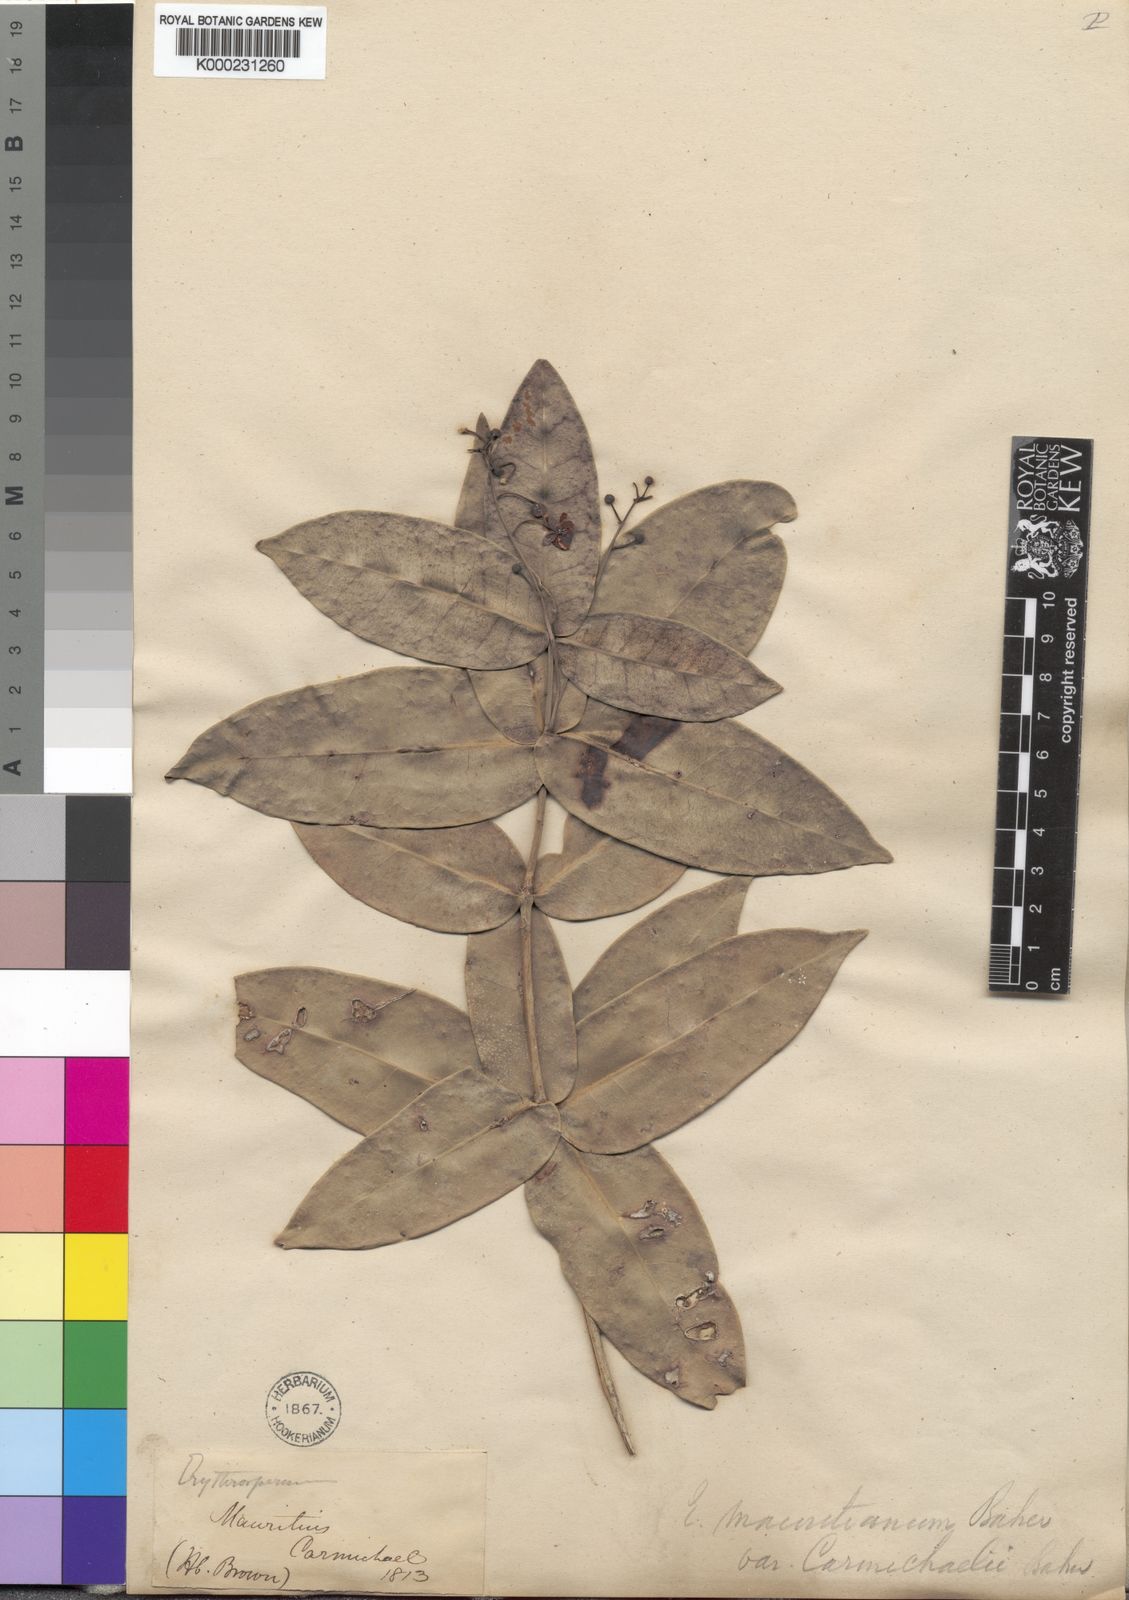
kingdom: Plantae
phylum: Tracheophyta
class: Magnoliopsida
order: Malpighiales
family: Achariaceae
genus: Erythrospermum
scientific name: Erythrospermum
